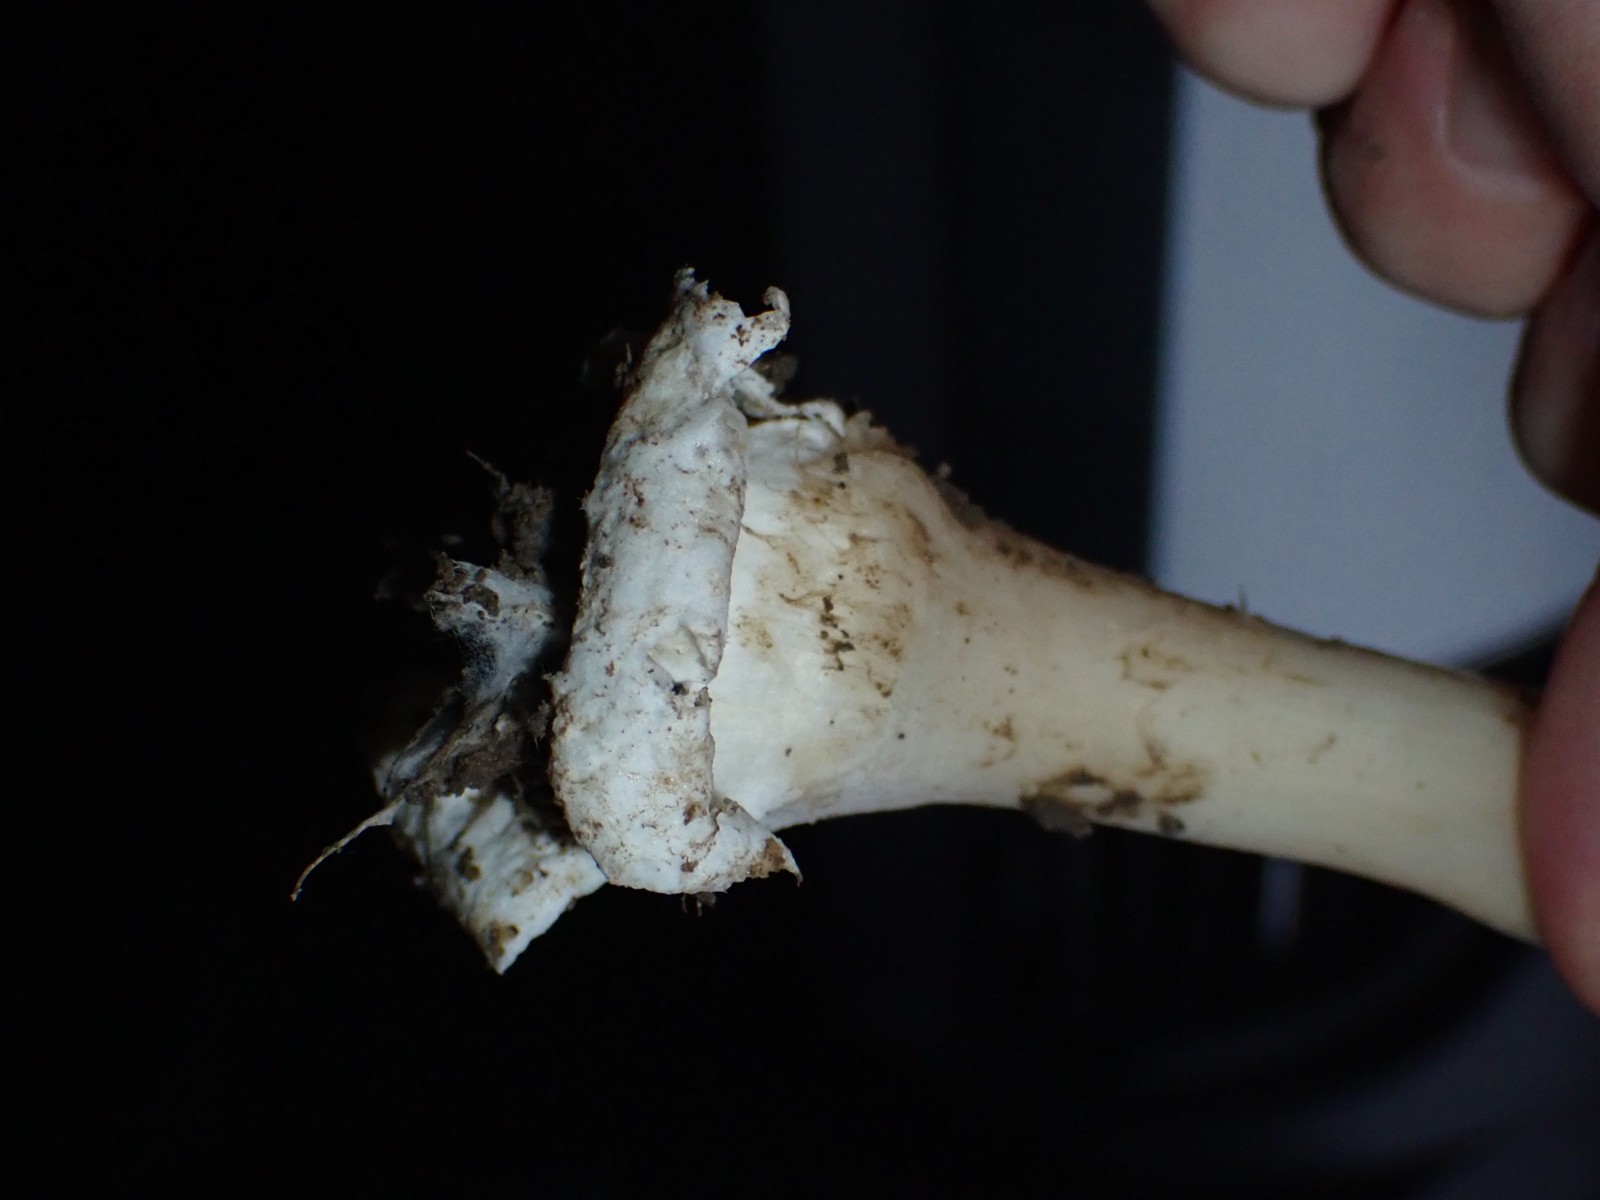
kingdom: Fungi
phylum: Basidiomycota
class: Agaricomycetes
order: Agaricales
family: Pluteaceae
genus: Volvopluteus
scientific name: Volvopluteus gloiocephalus
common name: høj posesvamp
